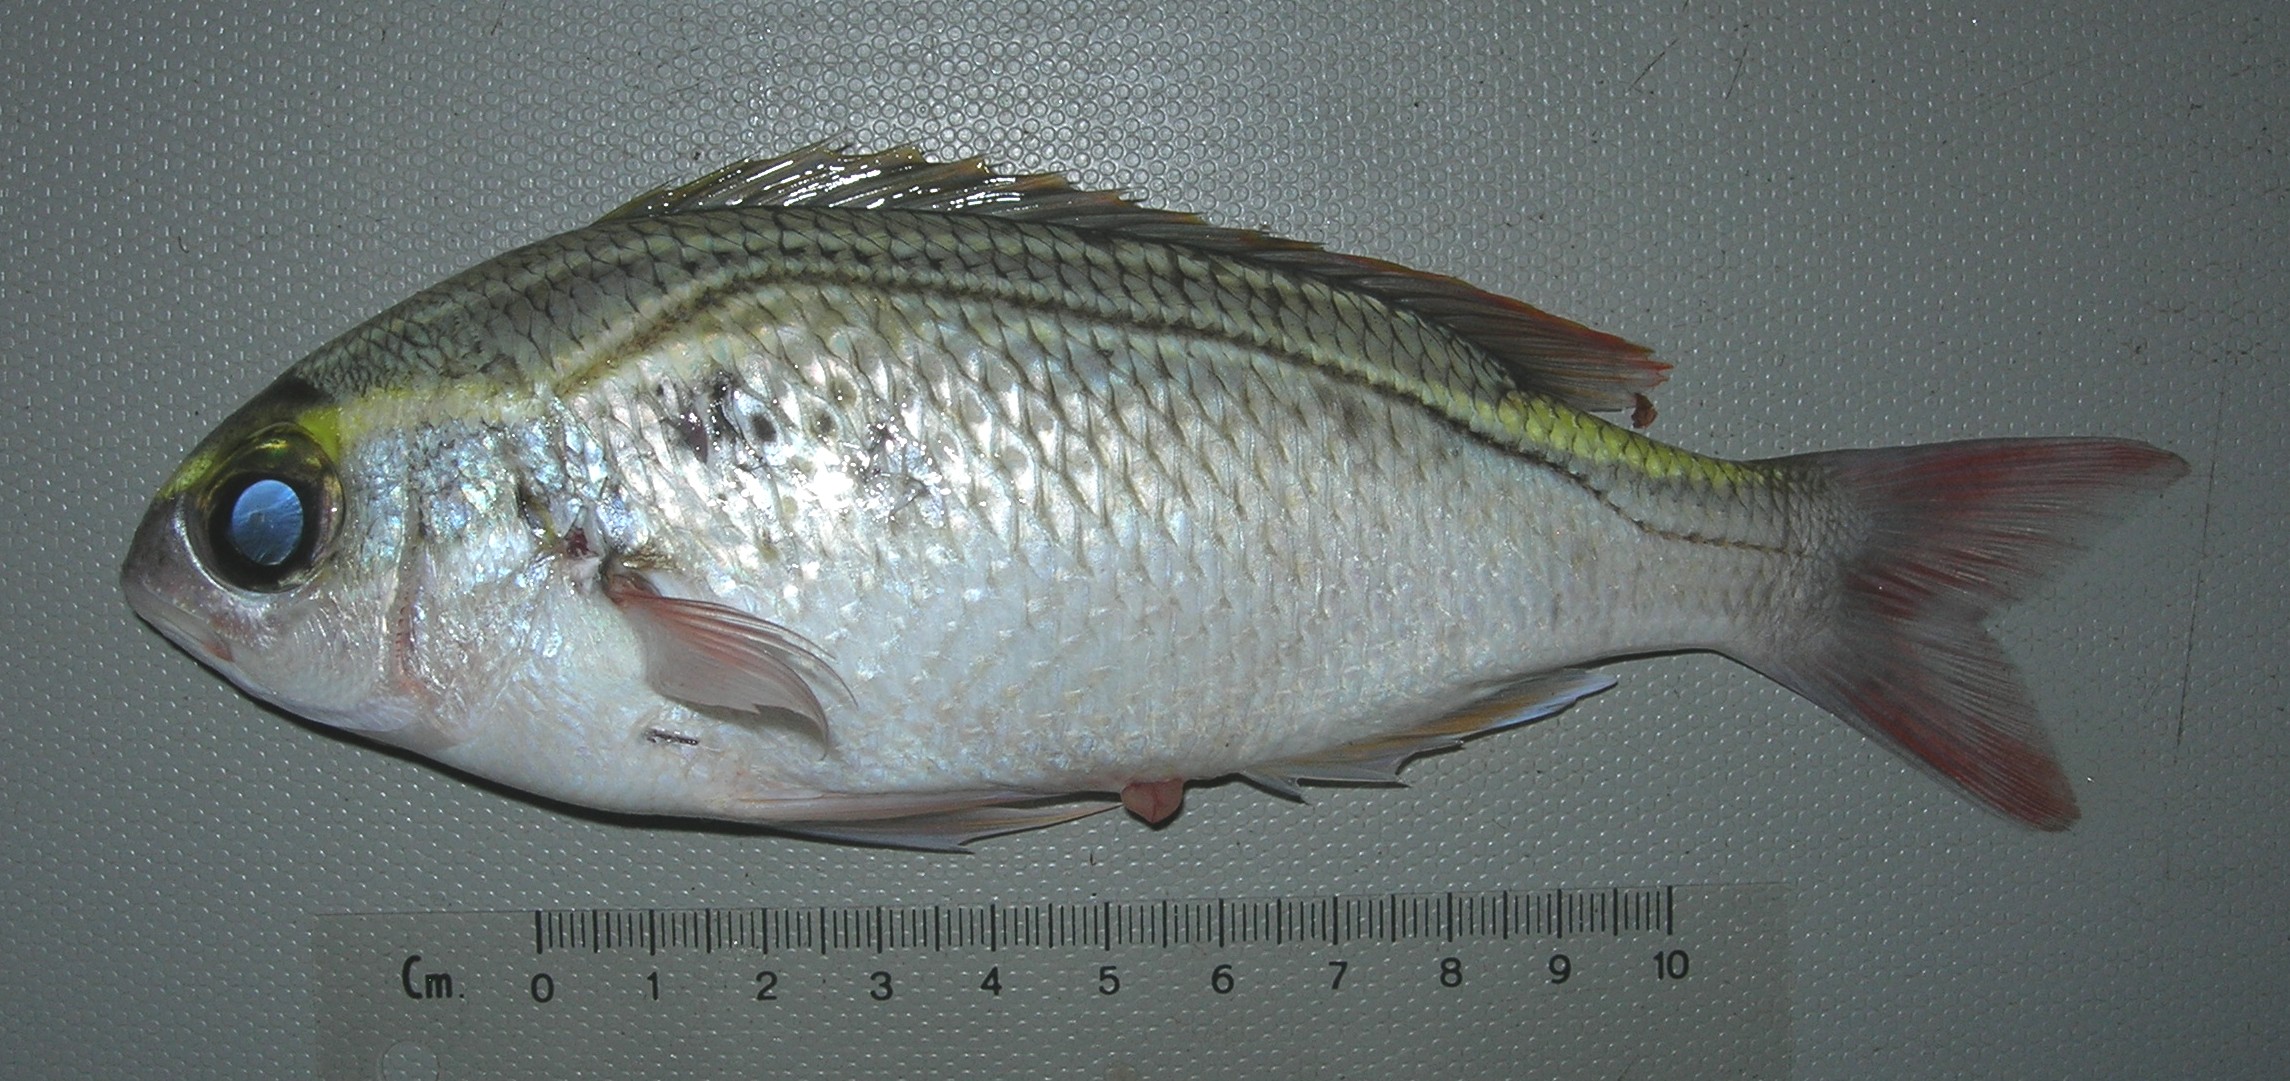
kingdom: Animalia
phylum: Chordata
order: Perciformes
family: Nemipteridae
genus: Scolopsis
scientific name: Scolopsis ghanam
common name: Arabian monocle bream
